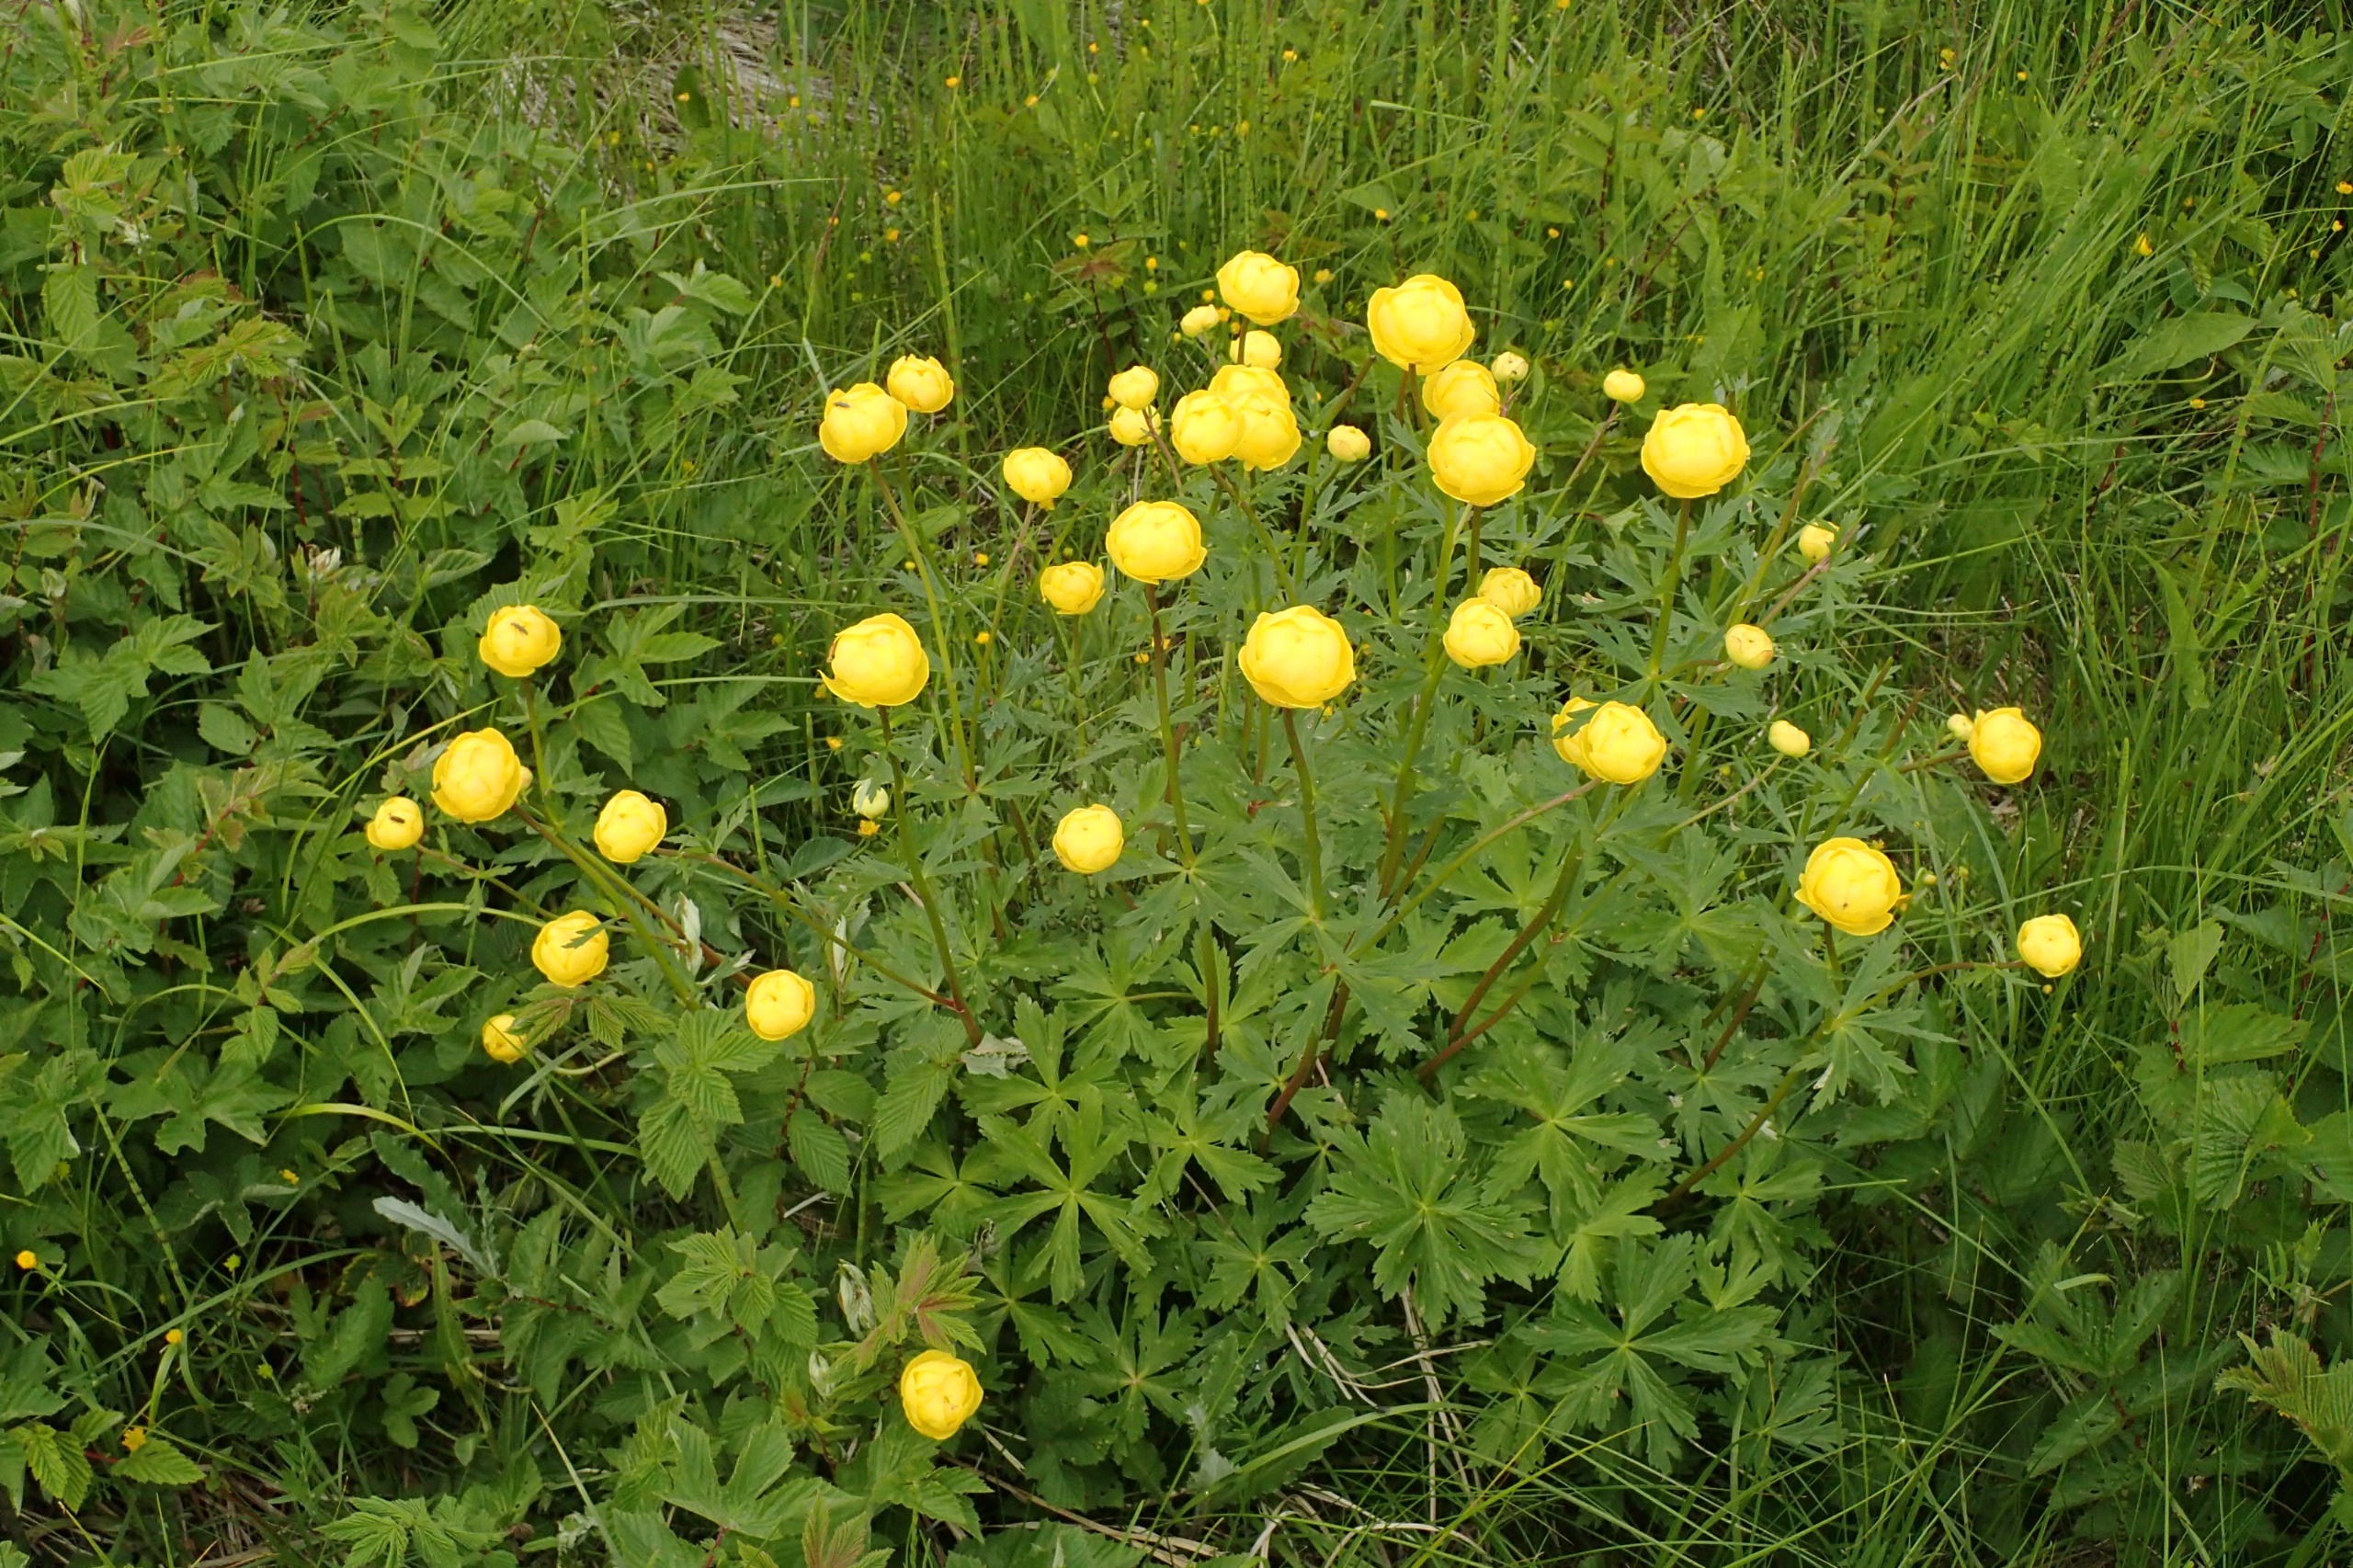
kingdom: Plantae
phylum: Tracheophyta
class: Magnoliopsida
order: Ranunculales
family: Ranunculaceae
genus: Trollius
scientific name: Trollius europaeus
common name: Engblomme
